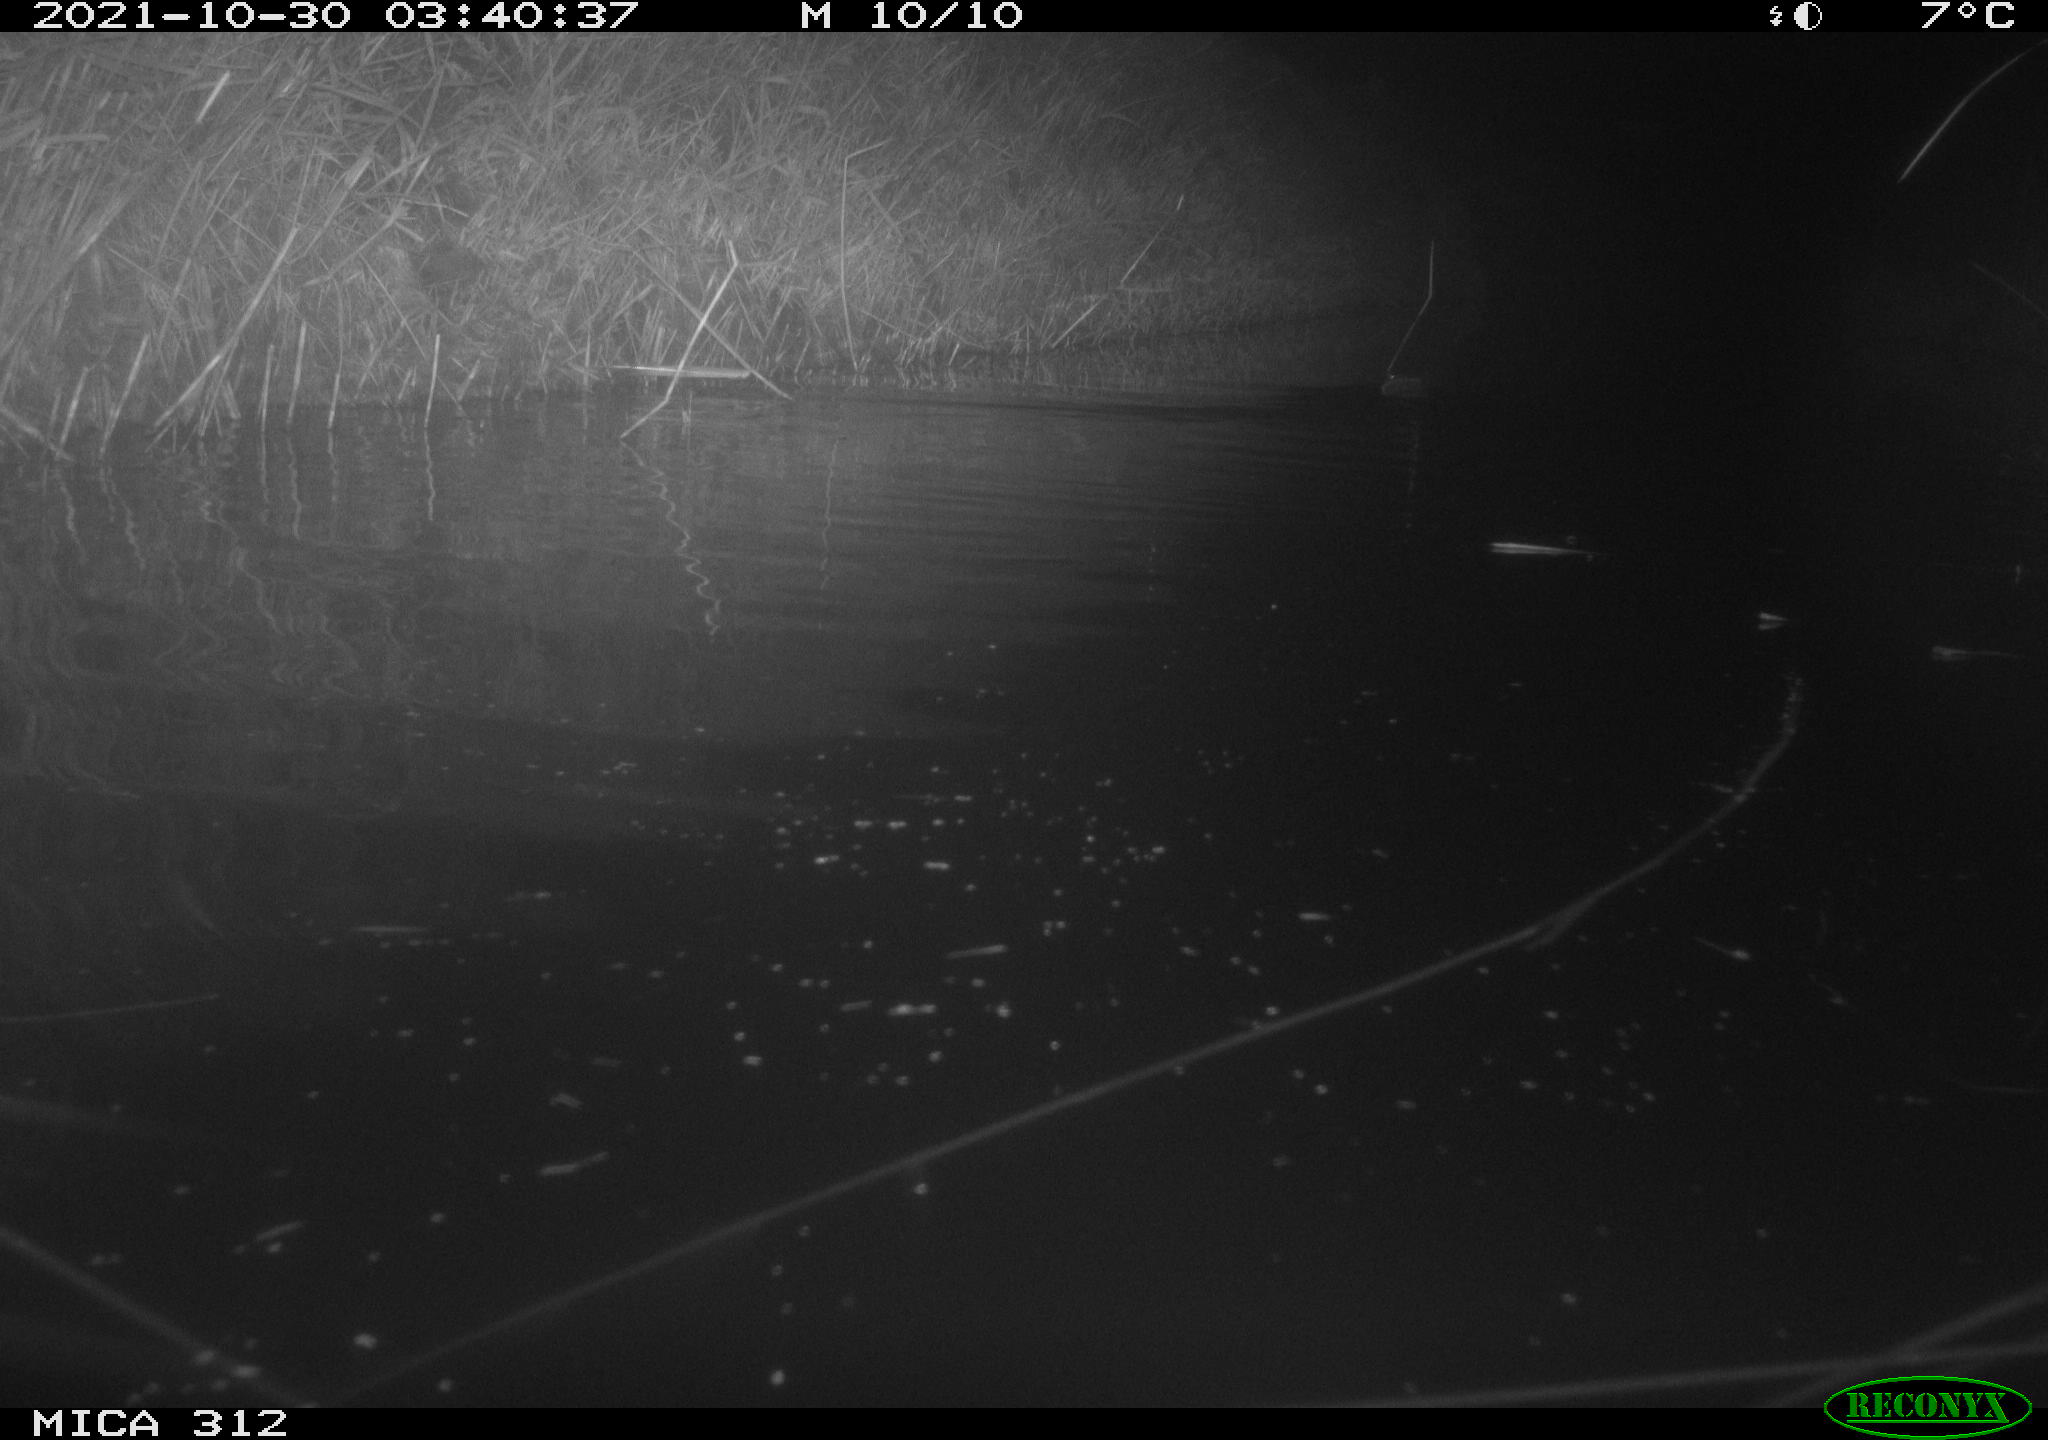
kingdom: Animalia
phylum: Chordata
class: Mammalia
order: Rodentia
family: Cricetidae
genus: Ondatra
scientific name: Ondatra zibethicus
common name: Muskrat
